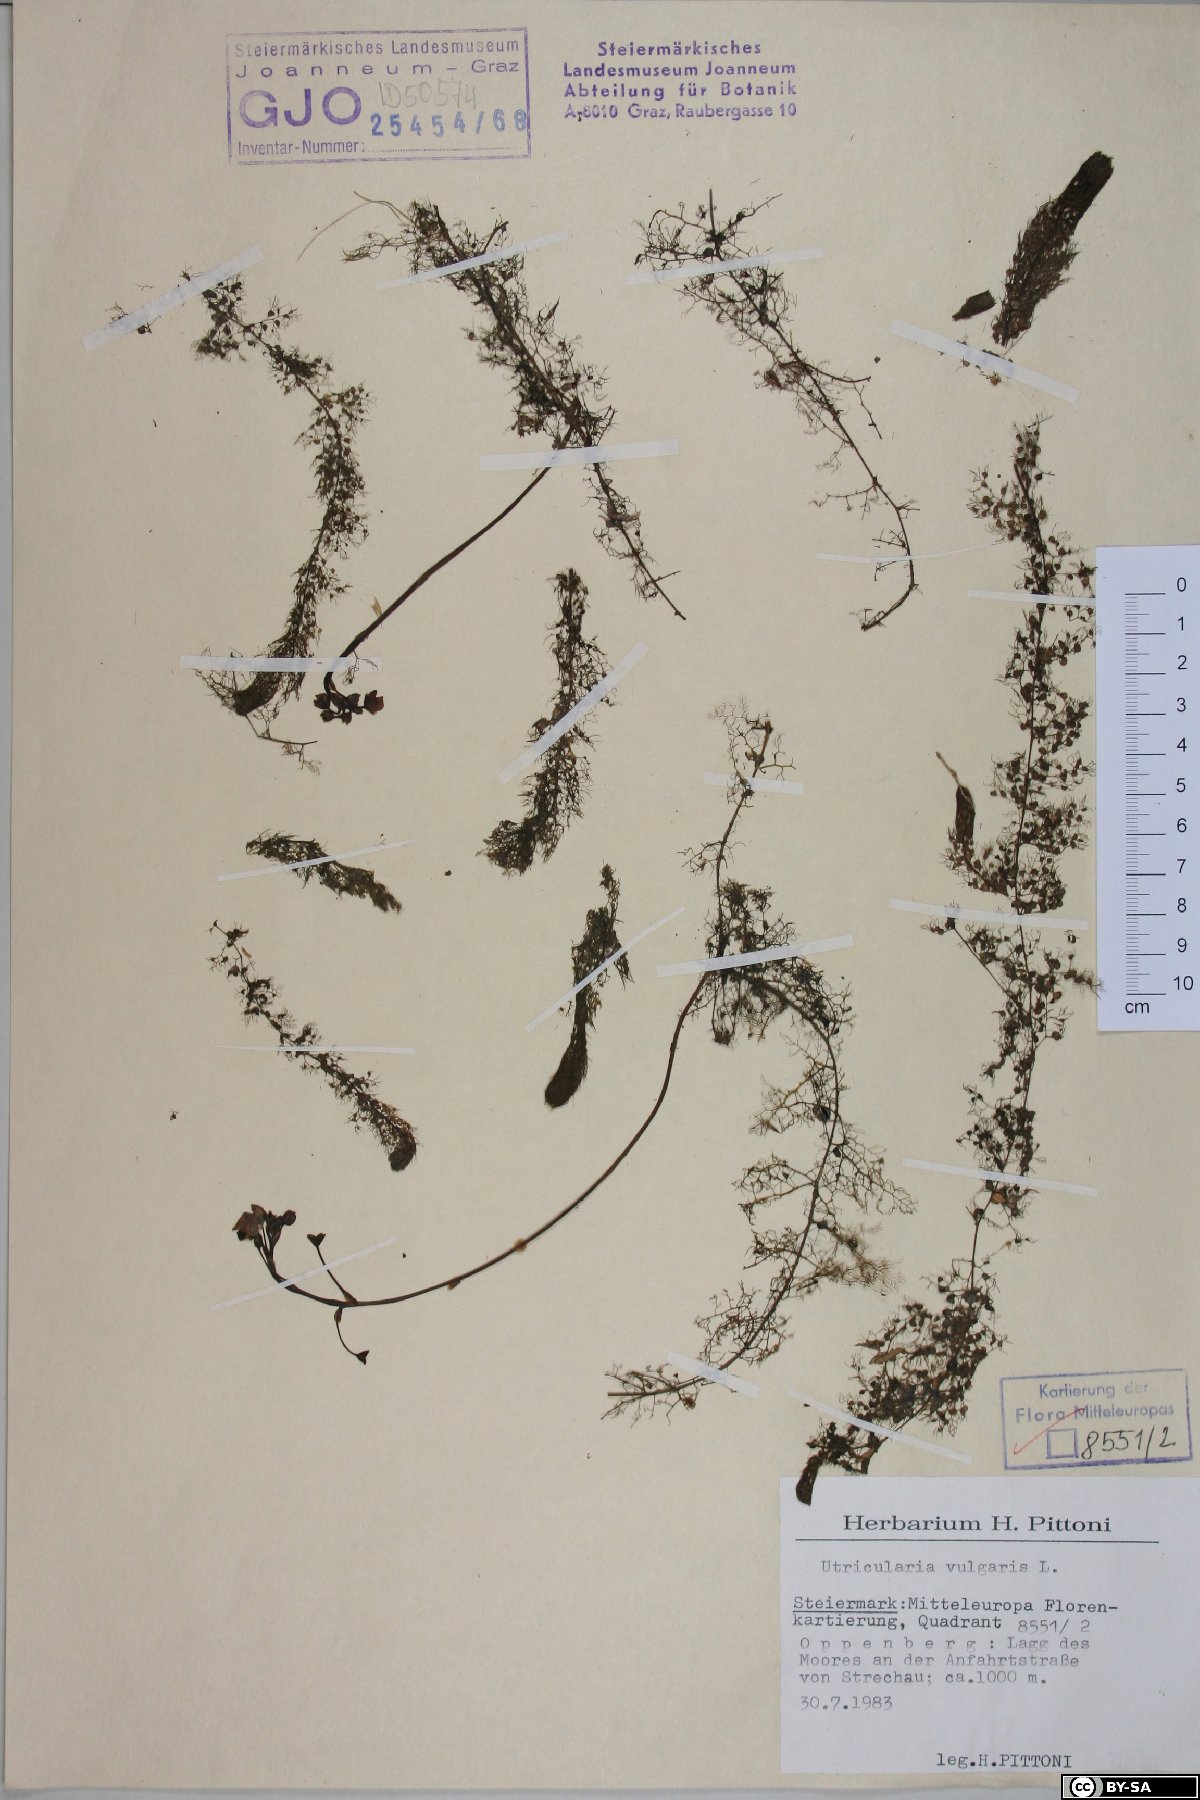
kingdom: Plantae
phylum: Tracheophyta
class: Magnoliopsida
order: Lamiales
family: Lentibulariaceae
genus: Utricularia
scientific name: Utricularia vulgaris
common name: Greater bladderwort
